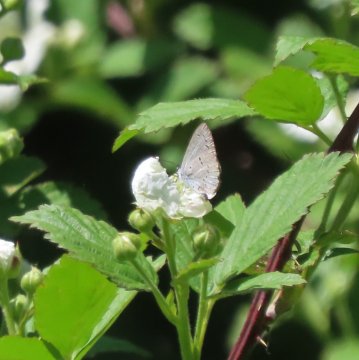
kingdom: Animalia
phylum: Arthropoda
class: Insecta
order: Lepidoptera
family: Lycaenidae
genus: Celastrina
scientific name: Celastrina
